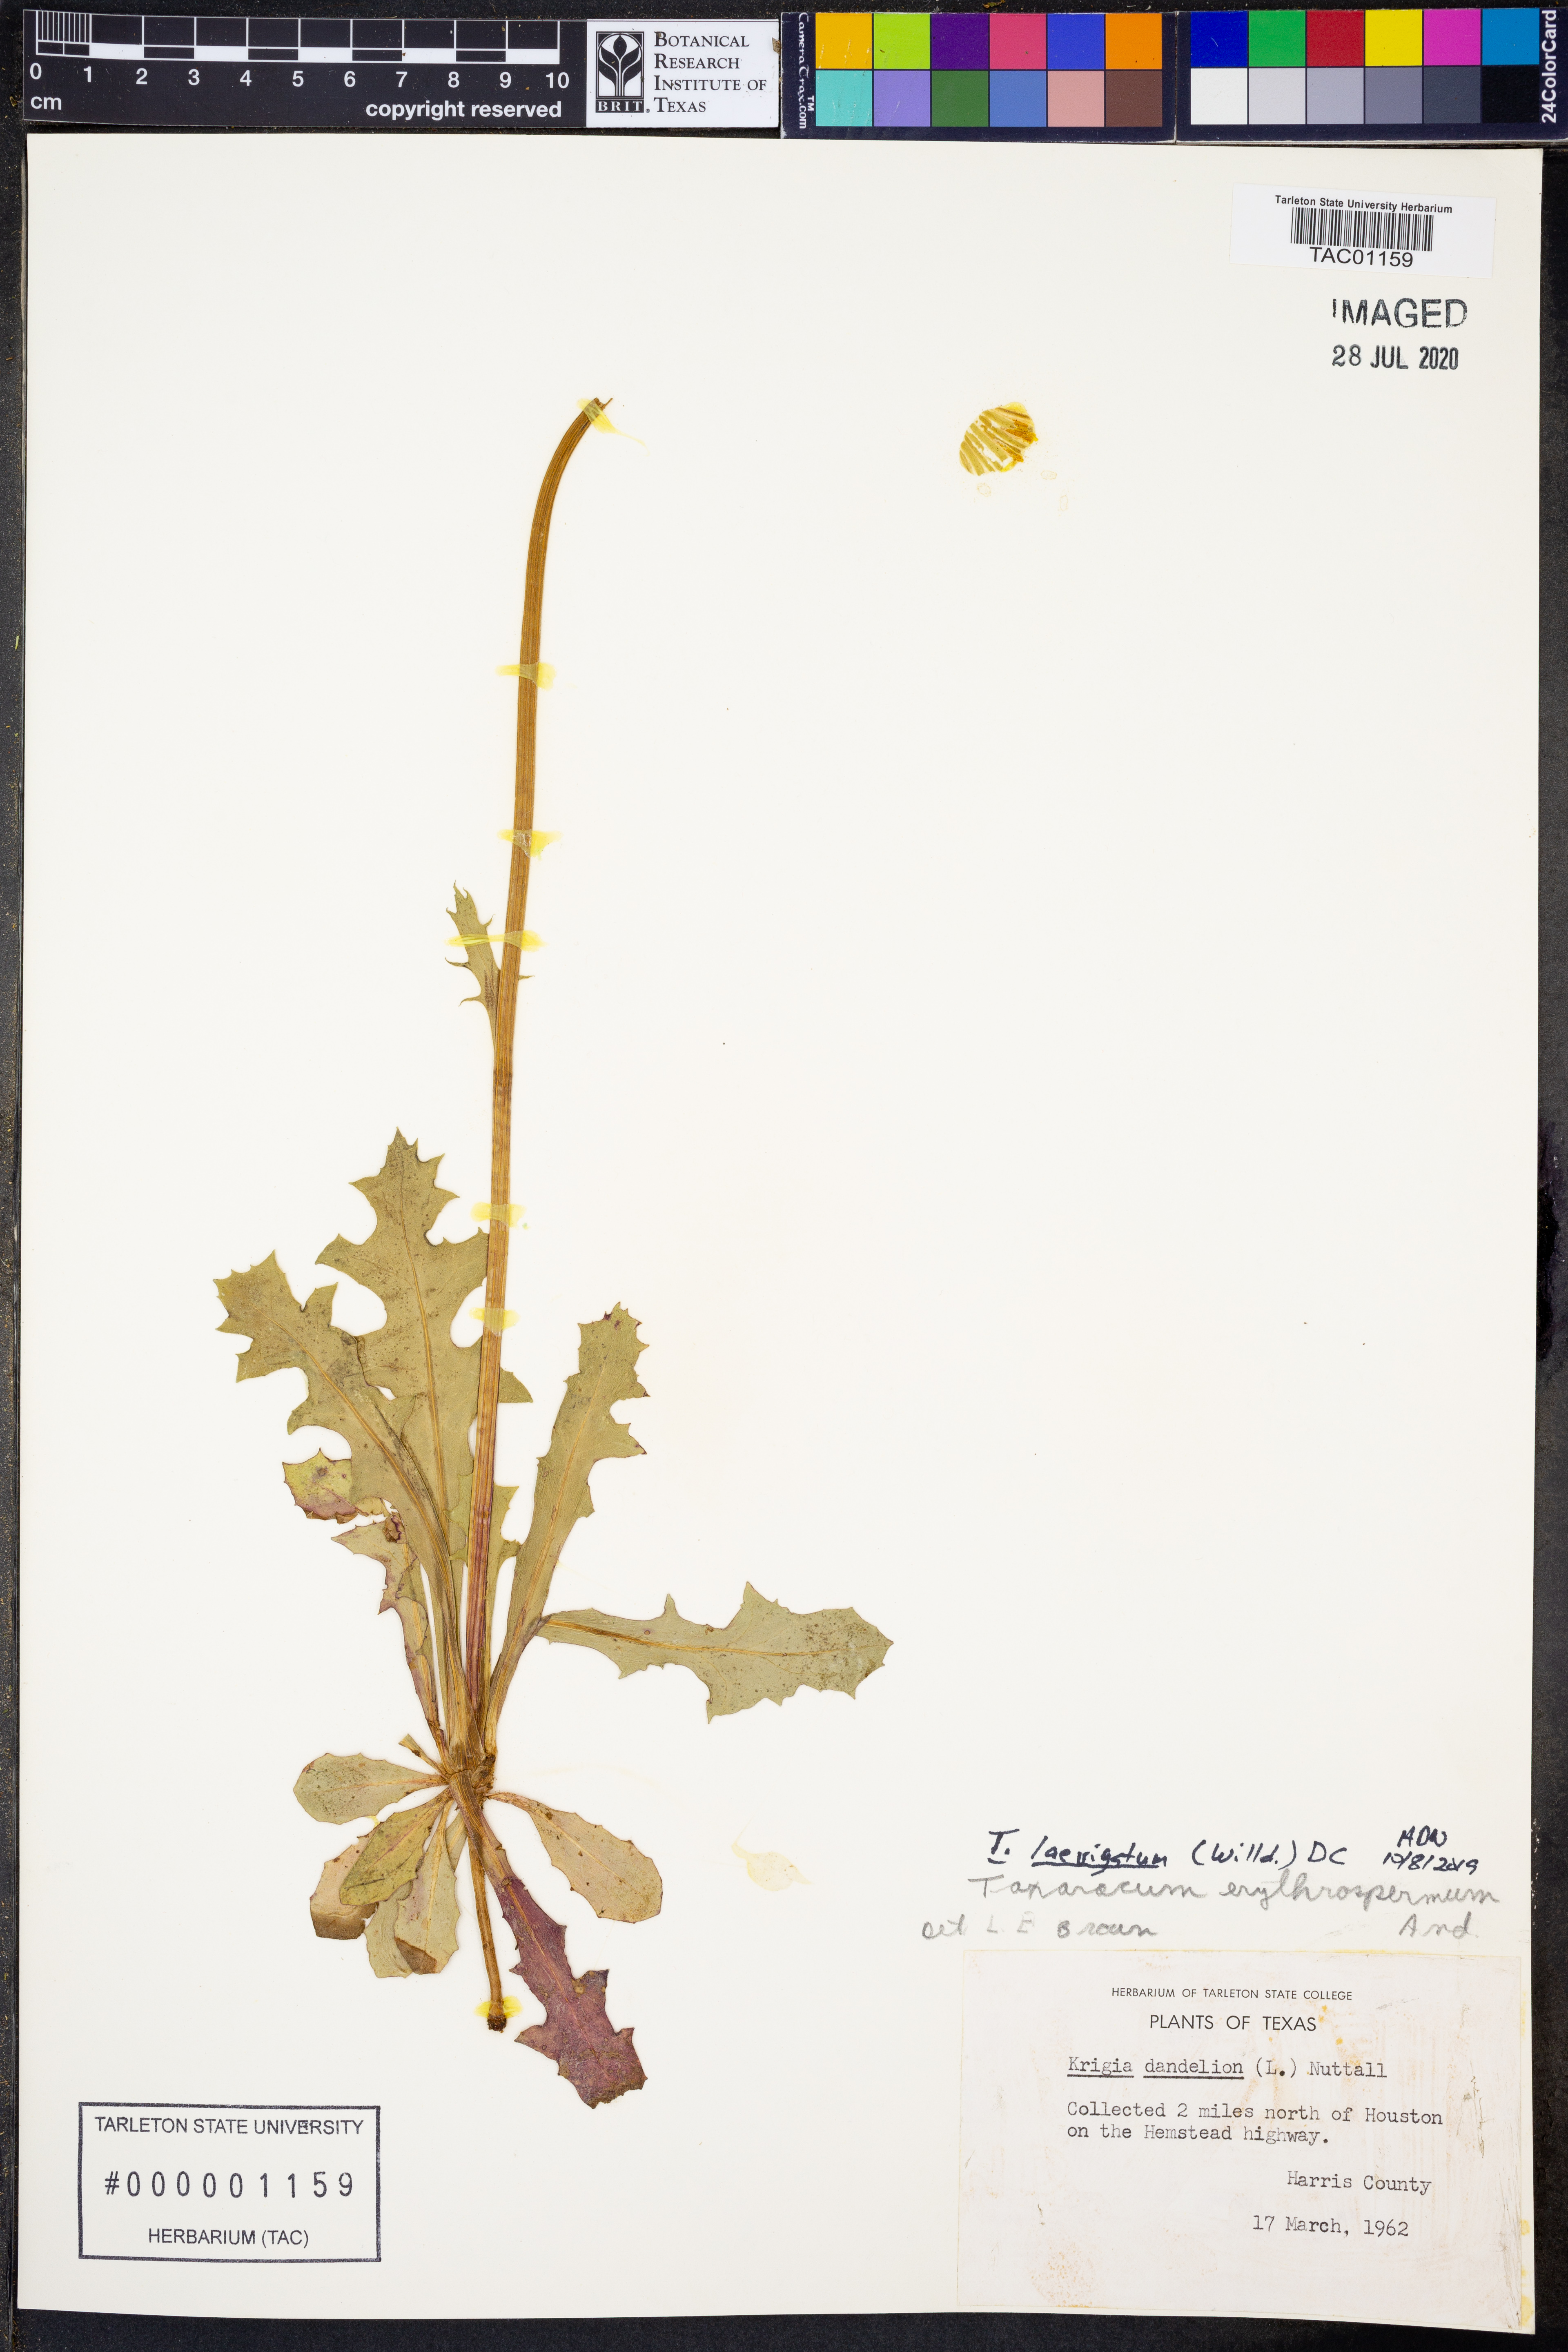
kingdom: Plantae
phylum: Tracheophyta
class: Magnoliopsida
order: Asterales
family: Asteraceae
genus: Taraxacum
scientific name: Taraxacum erythrospermum
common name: Rock dandelion
